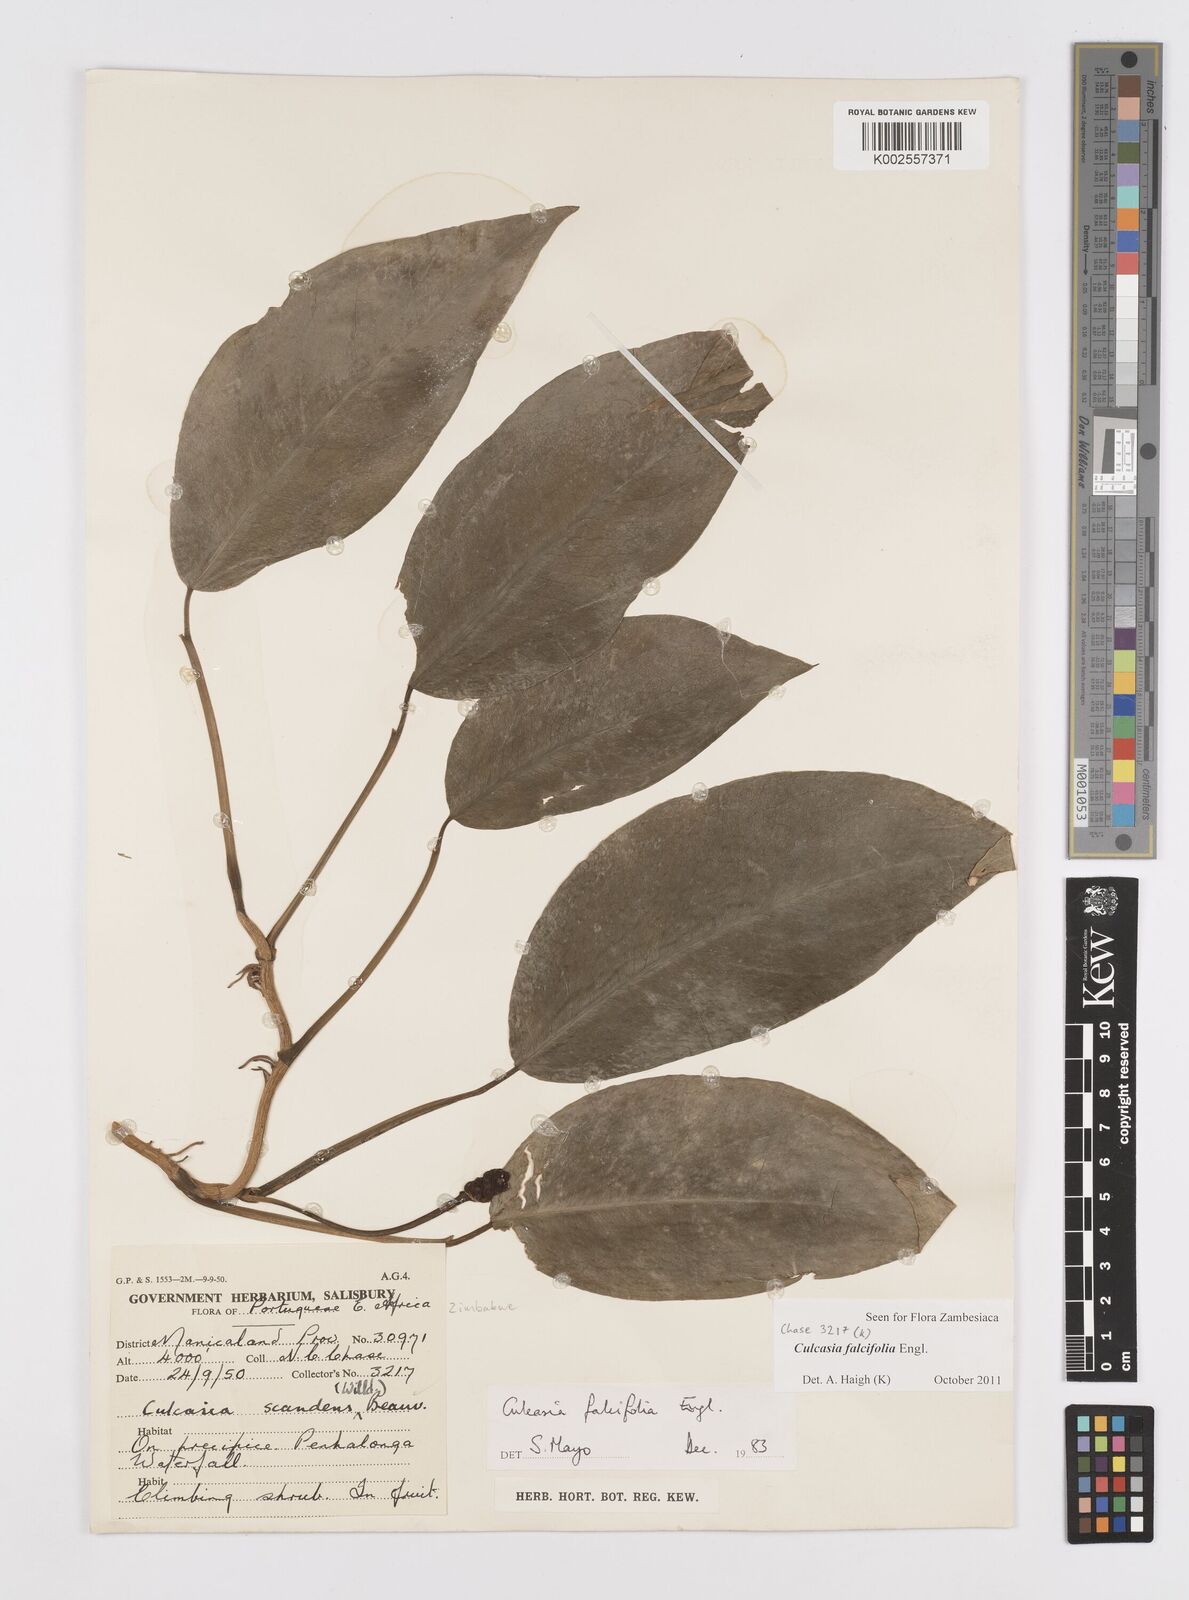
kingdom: Plantae
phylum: Tracheophyta
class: Liliopsida
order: Alismatales
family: Araceae
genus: Culcasia
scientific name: Culcasia falcifolia
